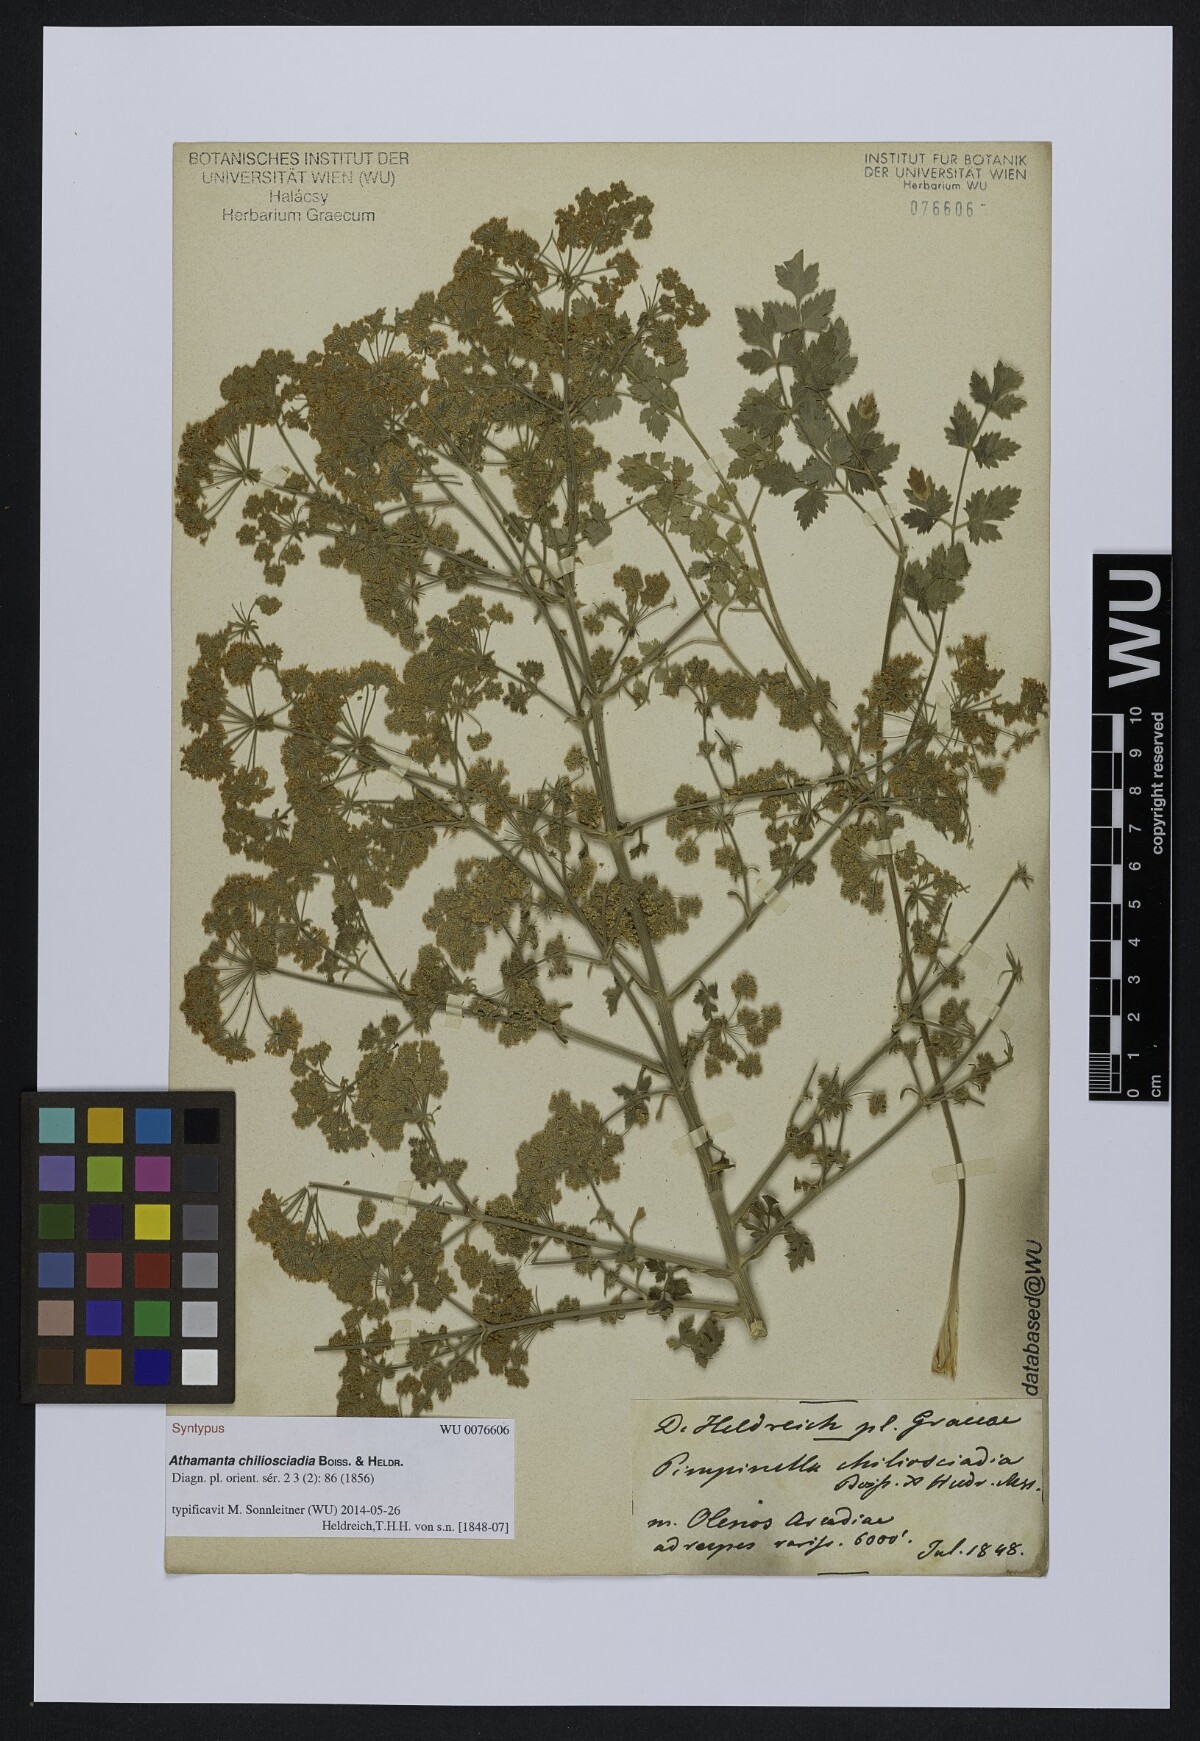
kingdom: Plantae
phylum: Tracheophyta
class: Magnoliopsida
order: Apiales
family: Apiaceae
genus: Bubon
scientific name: Bubon macedonicum
